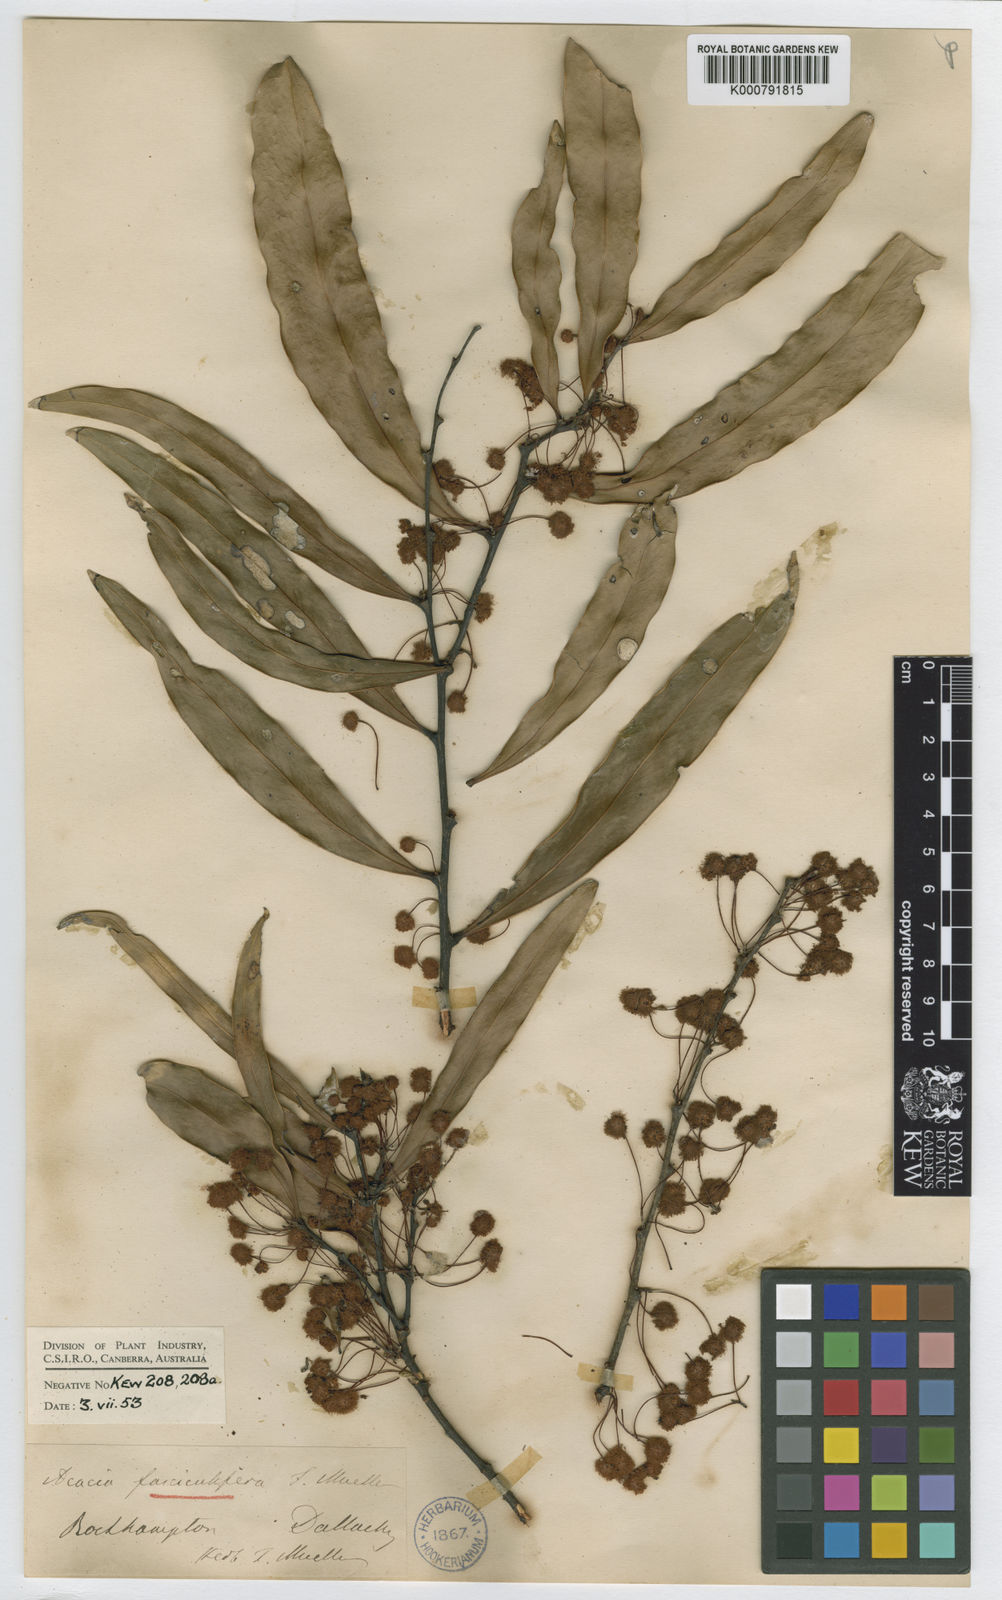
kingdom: Plantae
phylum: Tracheophyta
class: Magnoliopsida
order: Fabales
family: Fabaceae
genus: Acacia
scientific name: Acacia fasciculifera
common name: Scalybark
